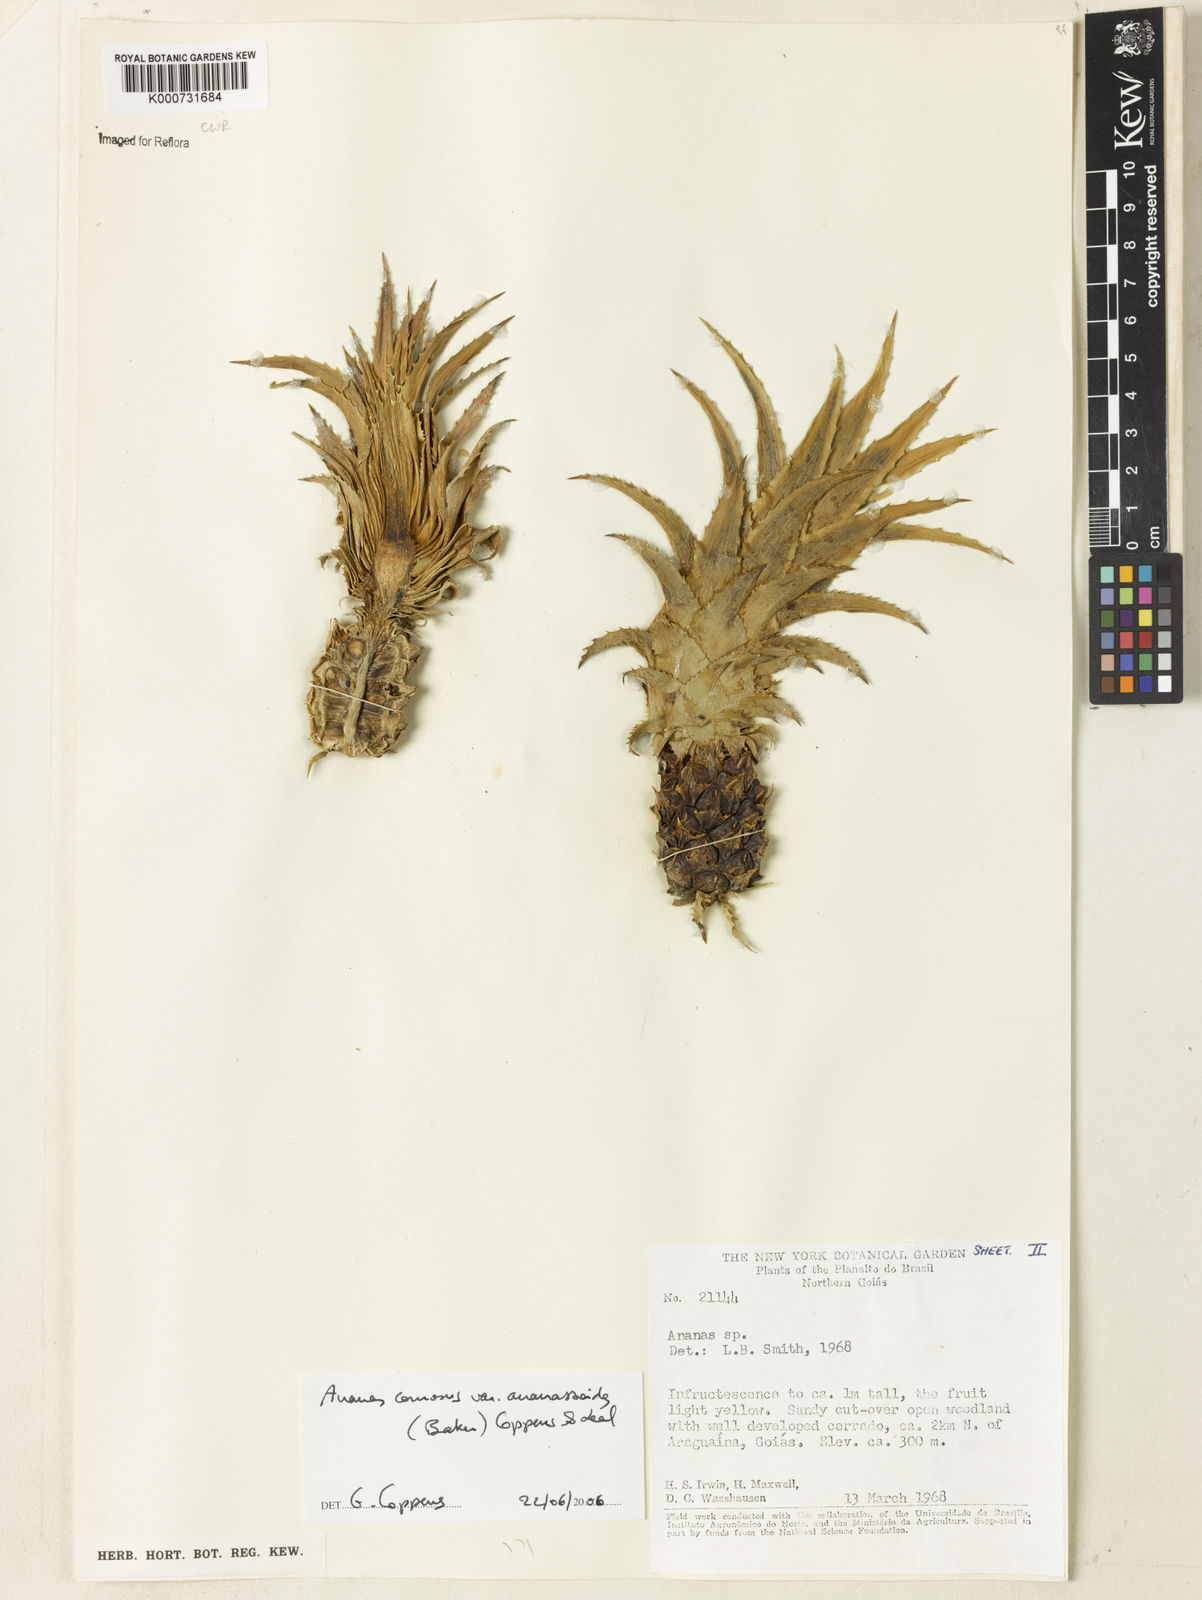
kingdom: Plantae
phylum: Tracheophyta
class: Liliopsida
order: Poales
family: Bromeliaceae
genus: Ananas
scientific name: Ananas
